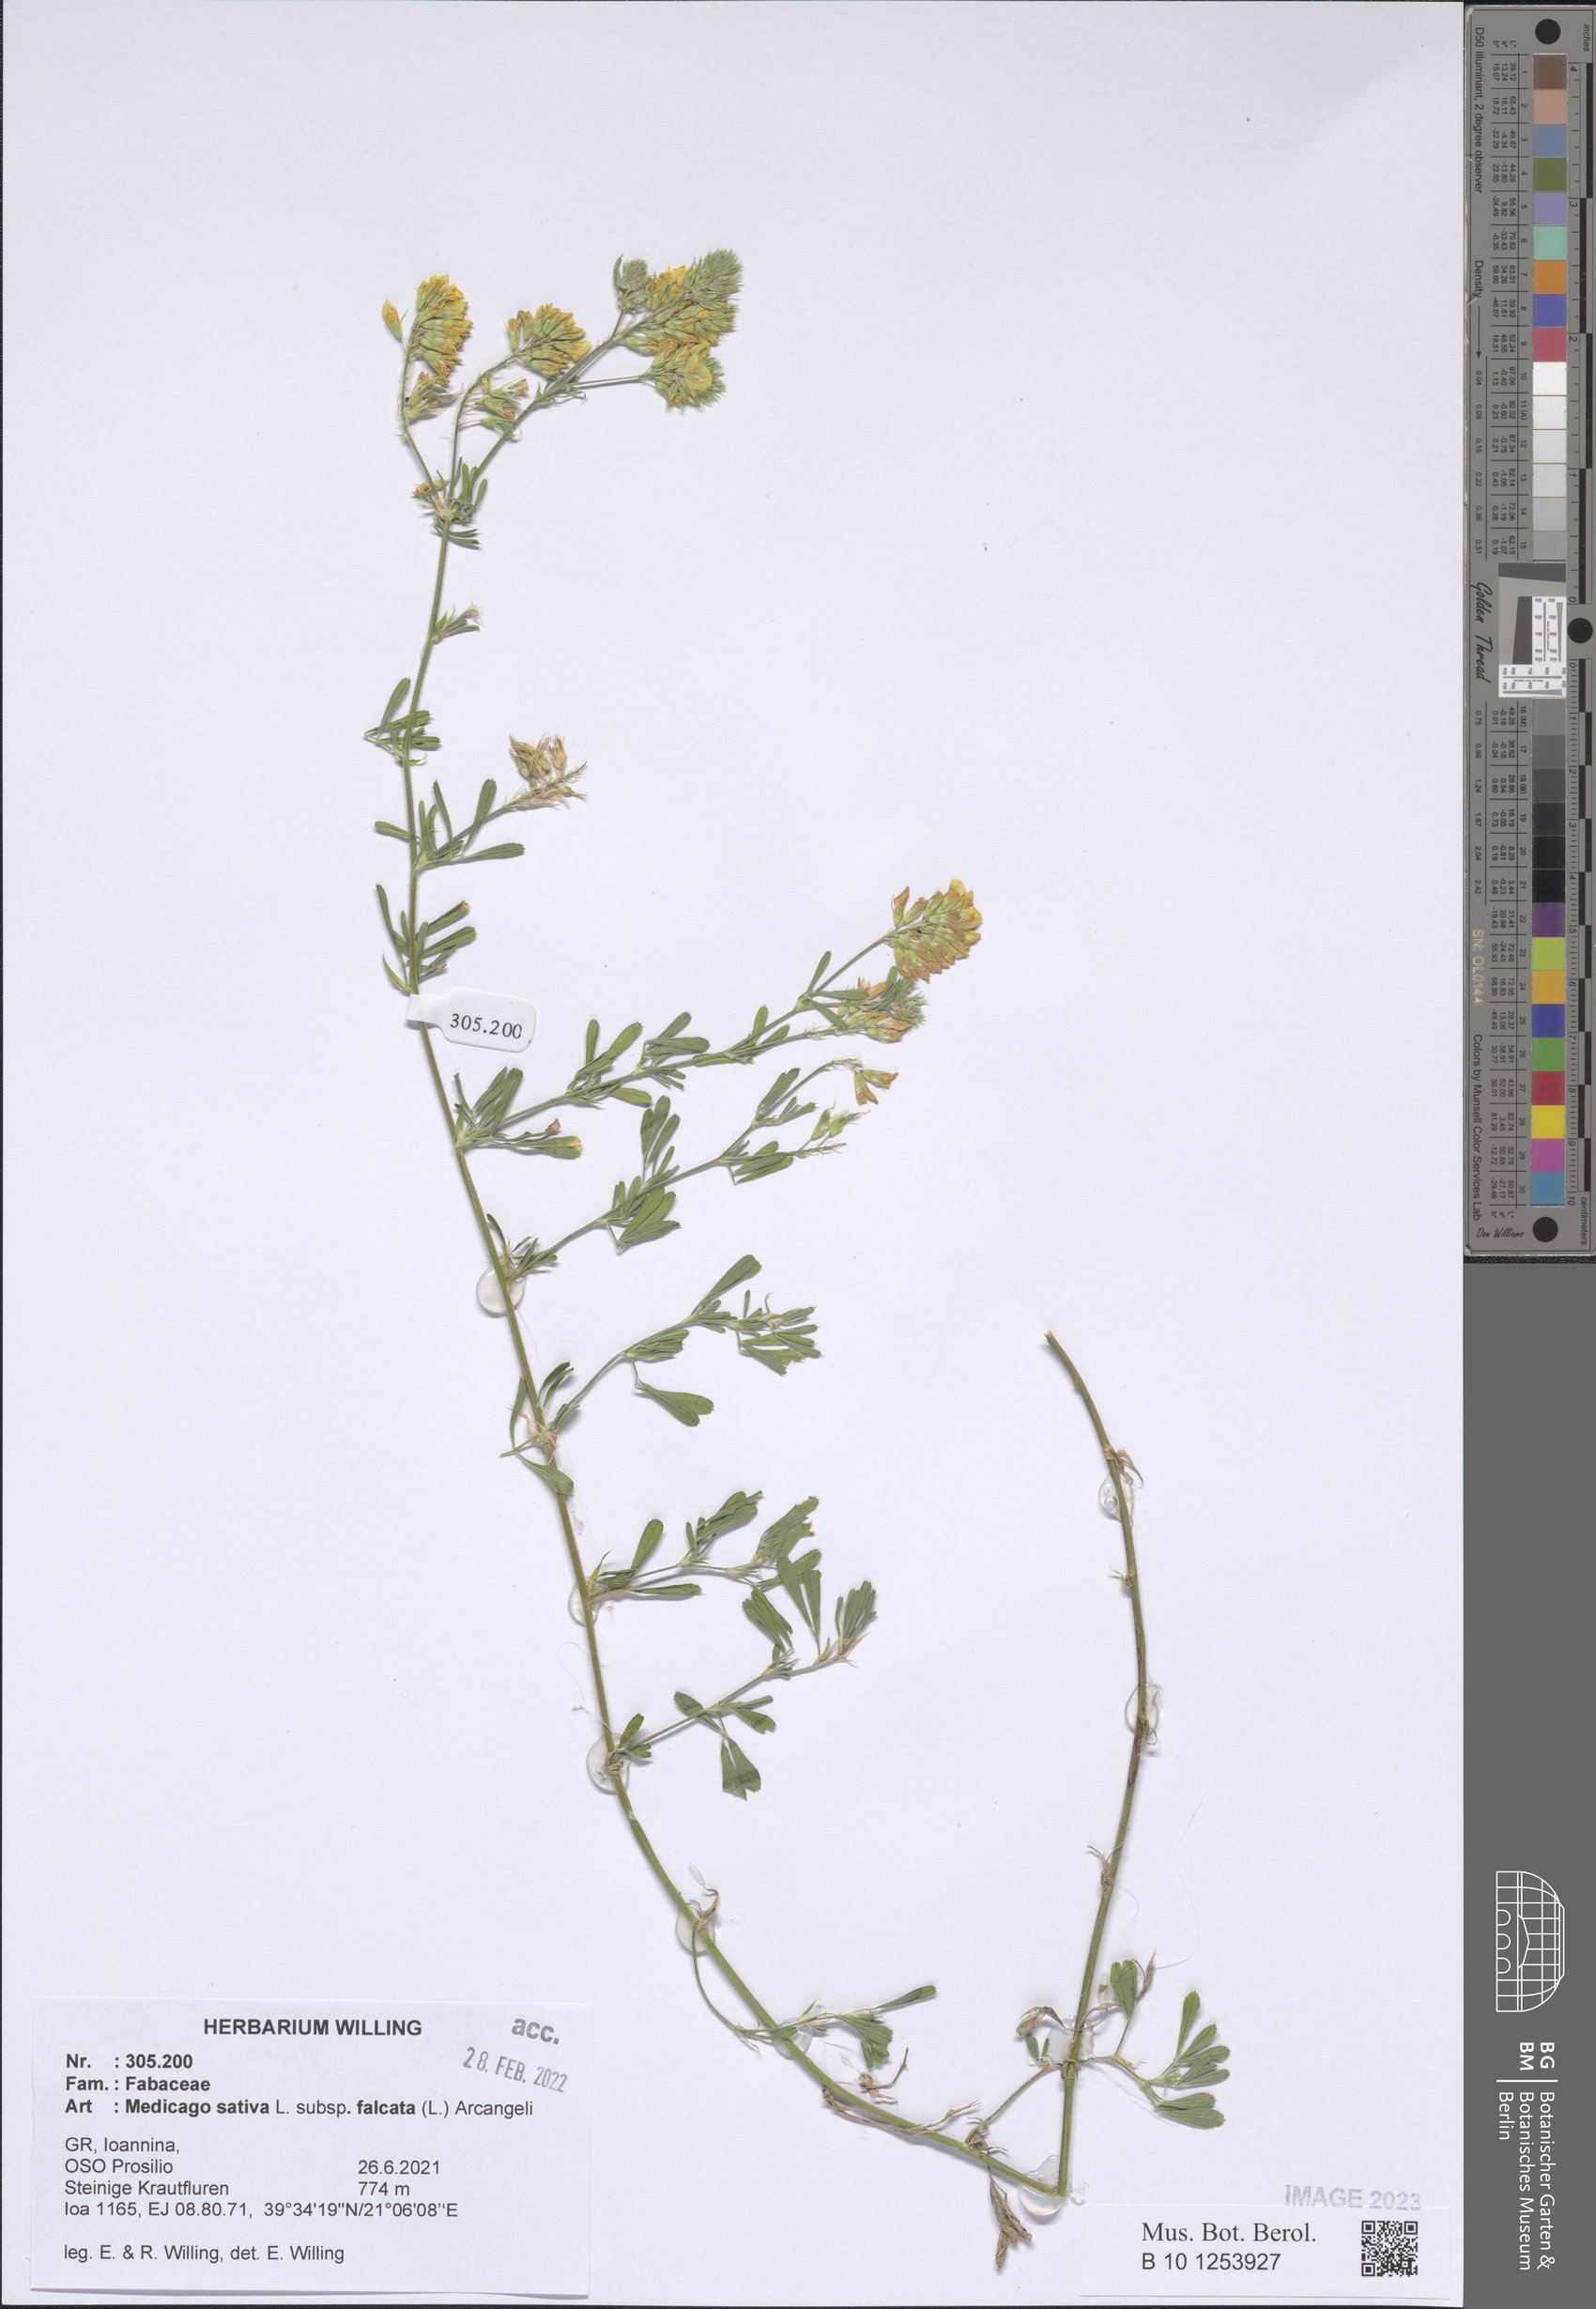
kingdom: Plantae
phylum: Tracheophyta
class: Magnoliopsida
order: Fabales
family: Fabaceae
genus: Medicago
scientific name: Medicago falcata
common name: Sickle medick
